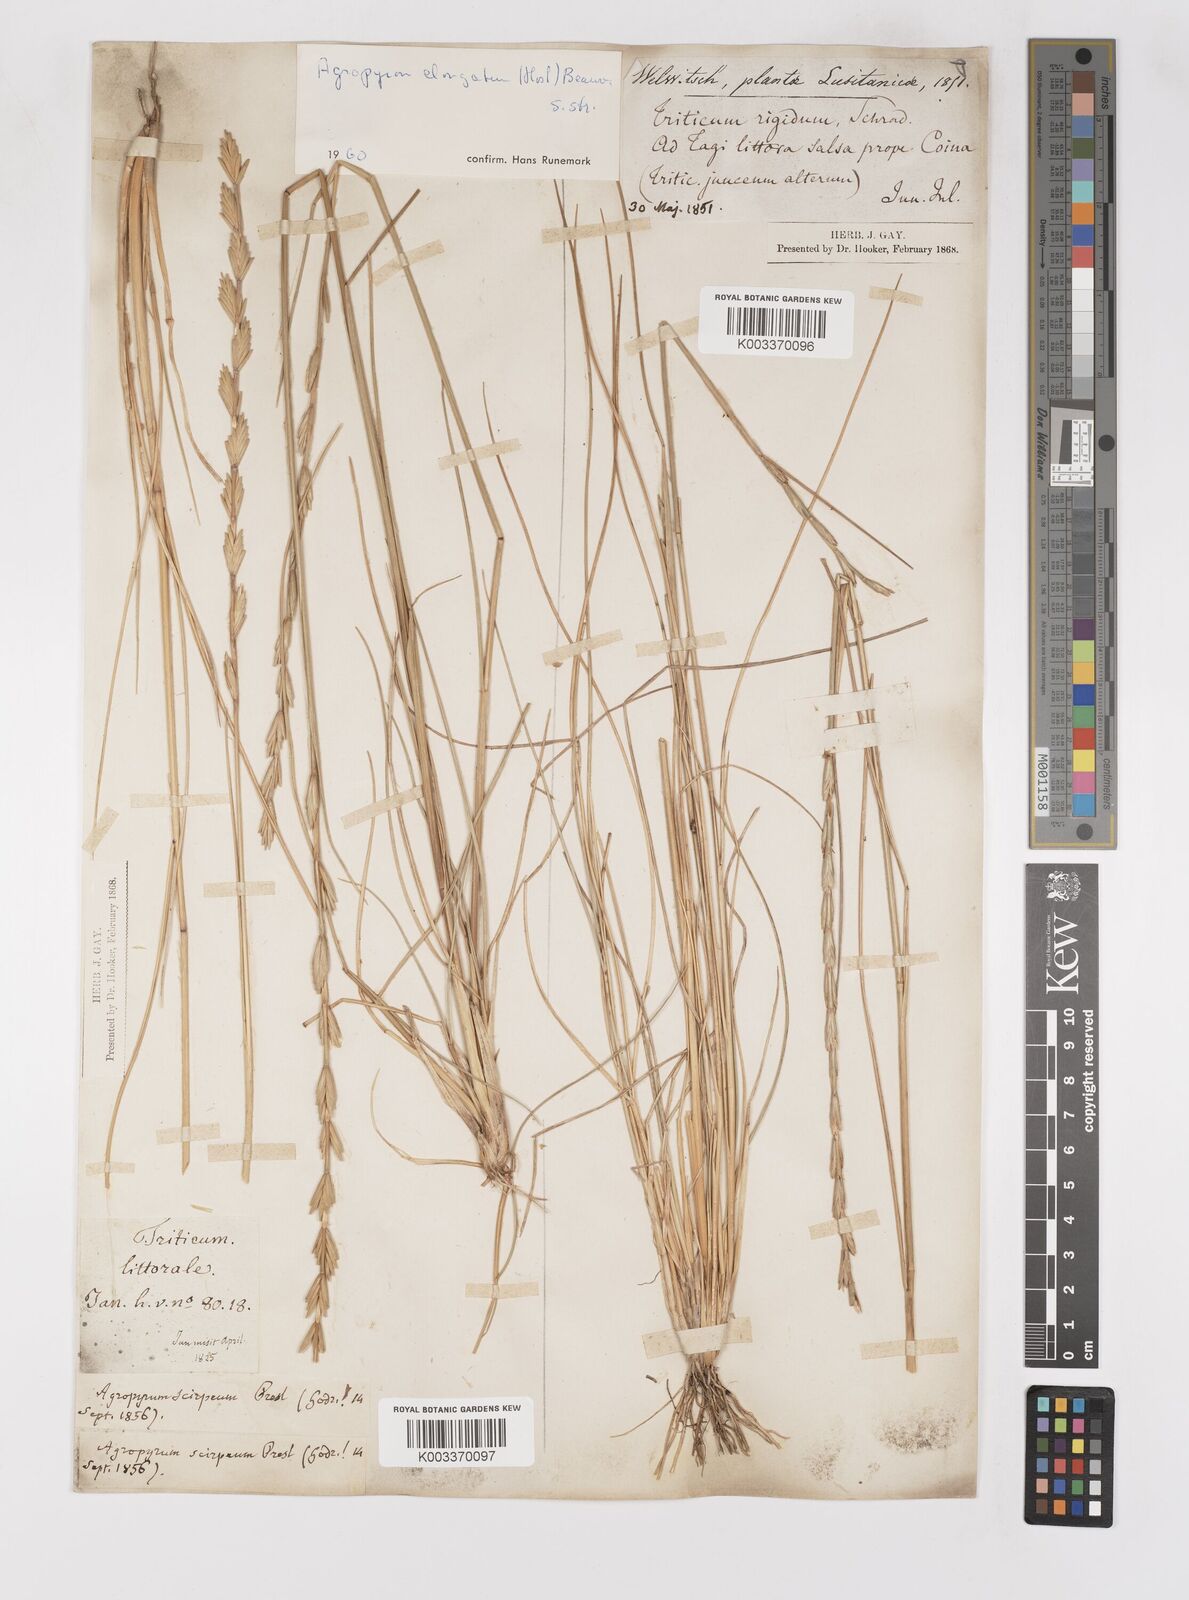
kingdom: Plantae
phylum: Tracheophyta
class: Liliopsida
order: Poales
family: Poaceae
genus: Thinopyrum
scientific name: Thinopyrum elongatum
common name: Tall wheatgrass
